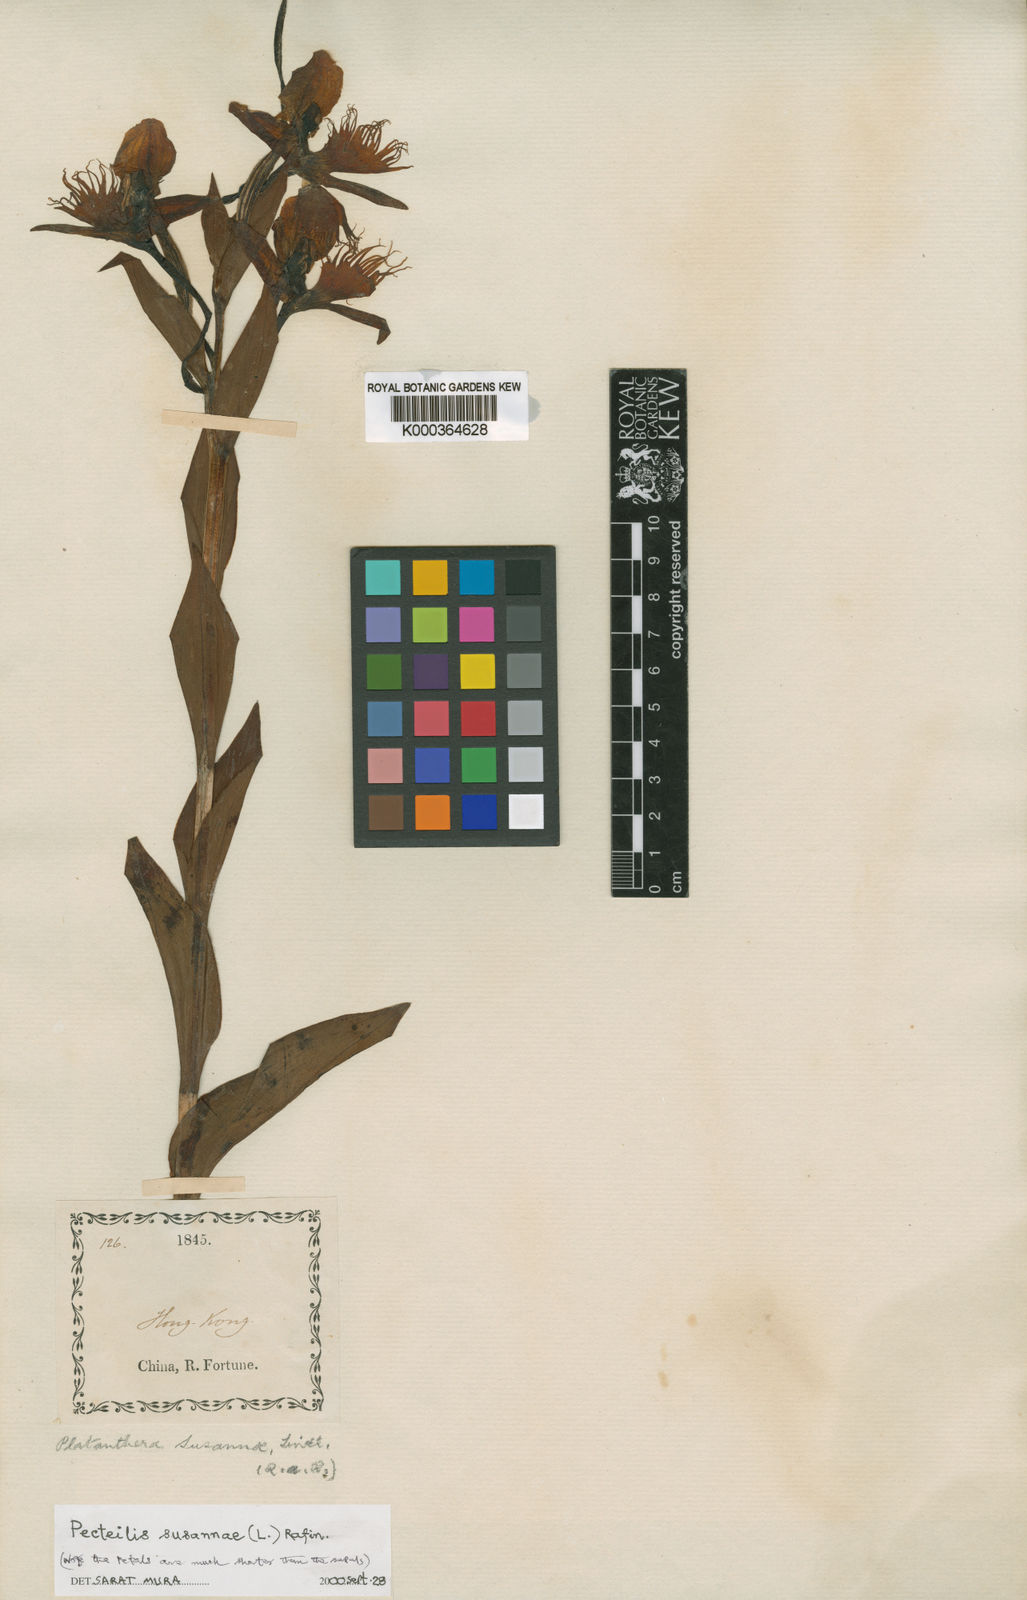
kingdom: Plantae
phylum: Tracheophyta
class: Liliopsida
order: Asparagales
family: Orchidaceae
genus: Pecteilis
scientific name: Pecteilis
